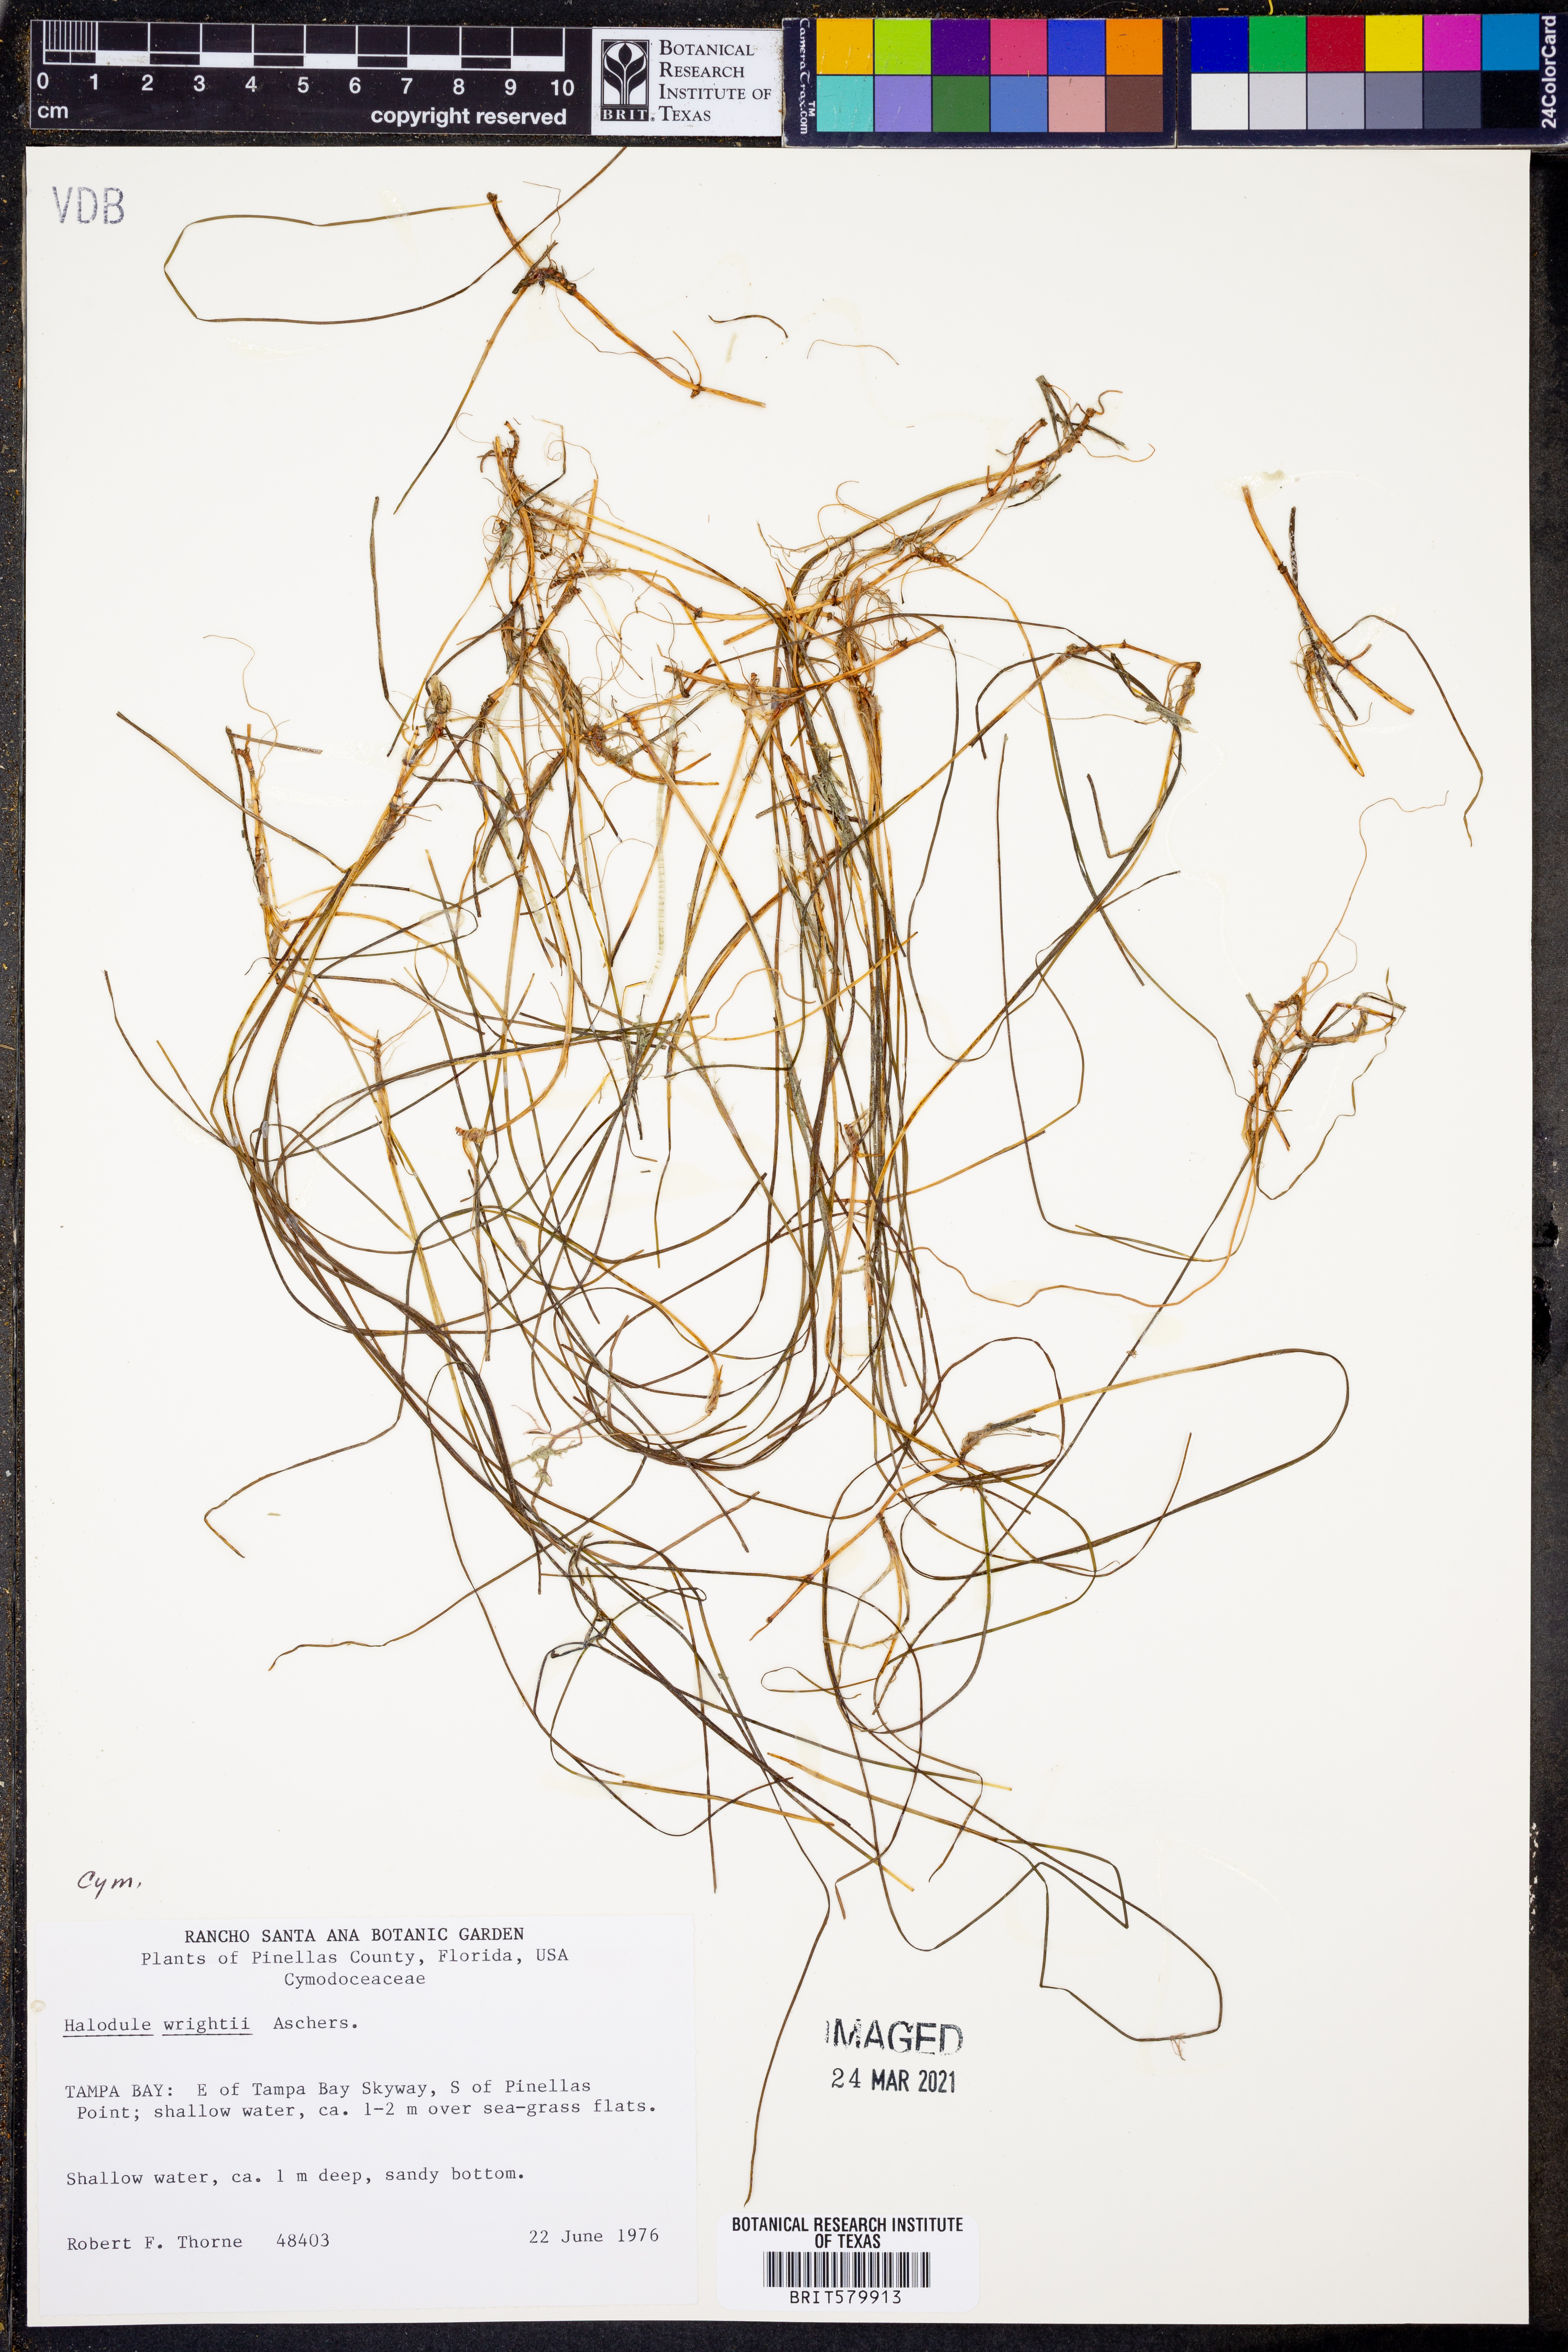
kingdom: Plantae
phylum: Tracheophyta
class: Liliopsida
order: Alismatales
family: Cymodoceaceae
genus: Halodule
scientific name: Halodule wrightii
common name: Shoalgrass
